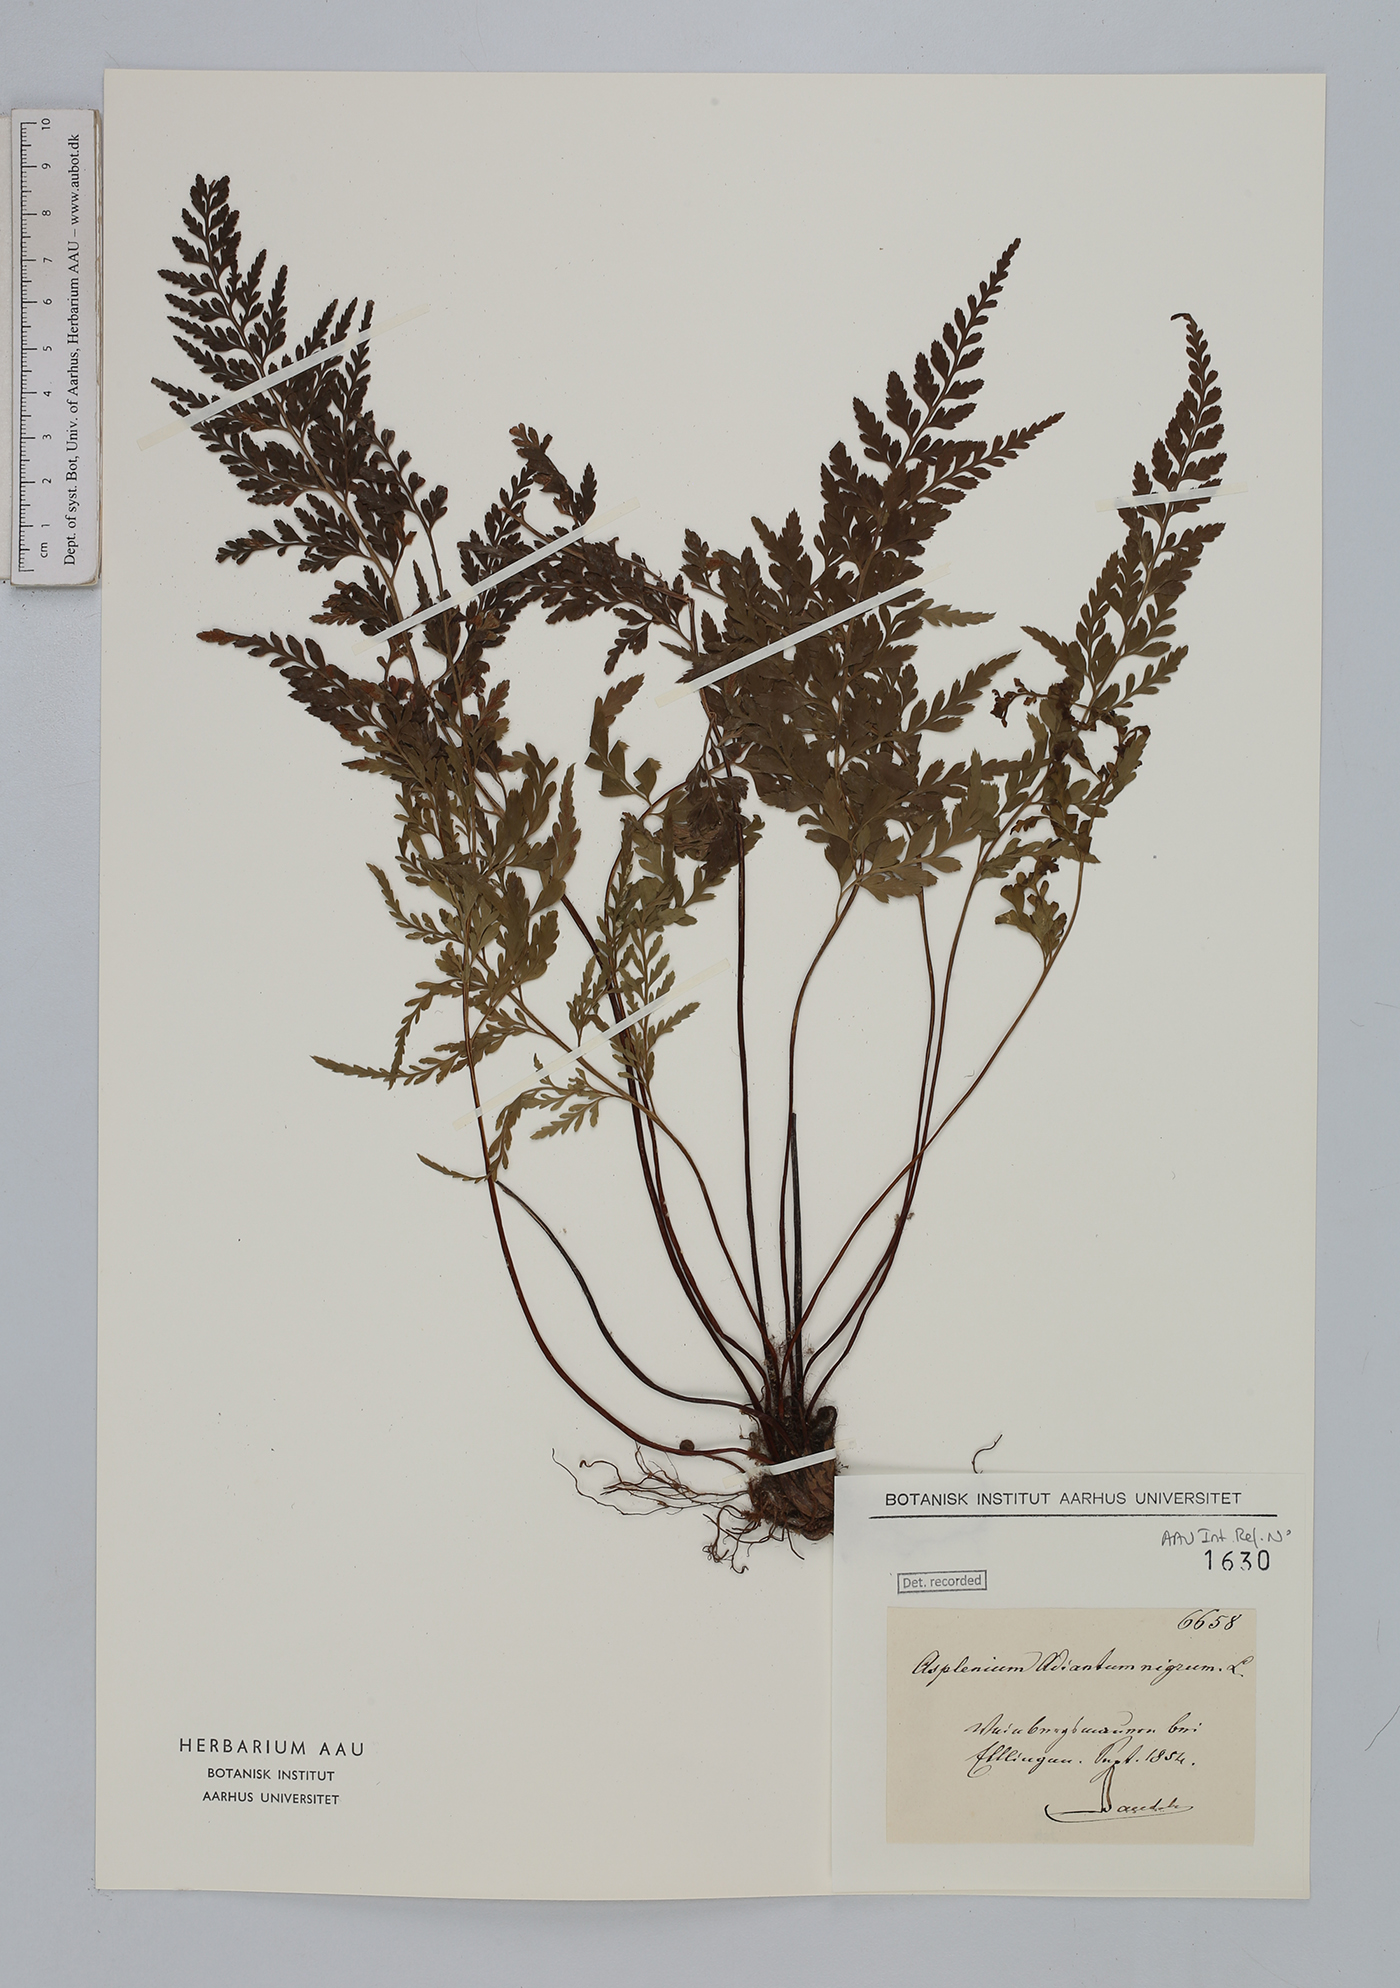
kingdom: Plantae
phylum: Tracheophyta
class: Polypodiopsida
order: Polypodiales
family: Aspleniaceae
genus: Asplenium
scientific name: Asplenium adiantum-nigrum
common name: Black spleenwort
